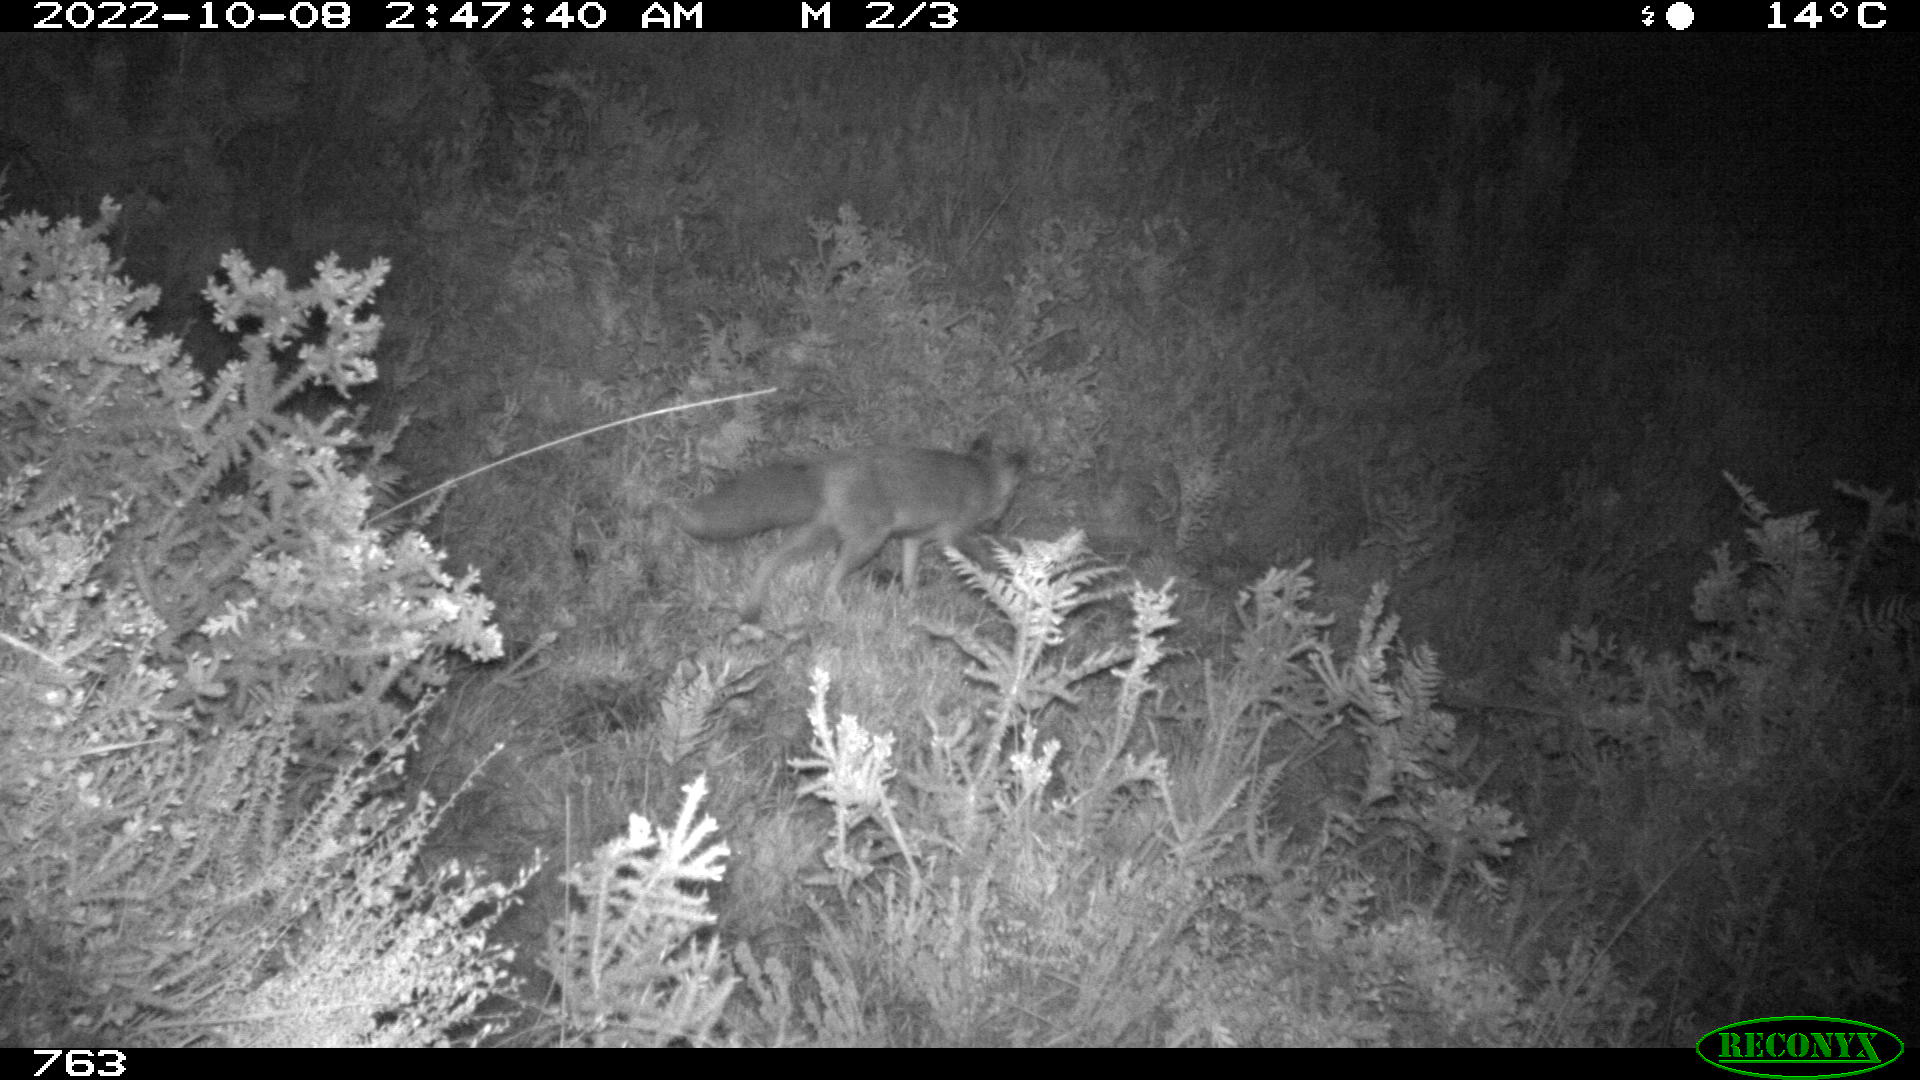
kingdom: Animalia
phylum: Chordata
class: Mammalia
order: Carnivora
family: Canidae
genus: Vulpes
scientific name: Vulpes vulpes
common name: Red fox
